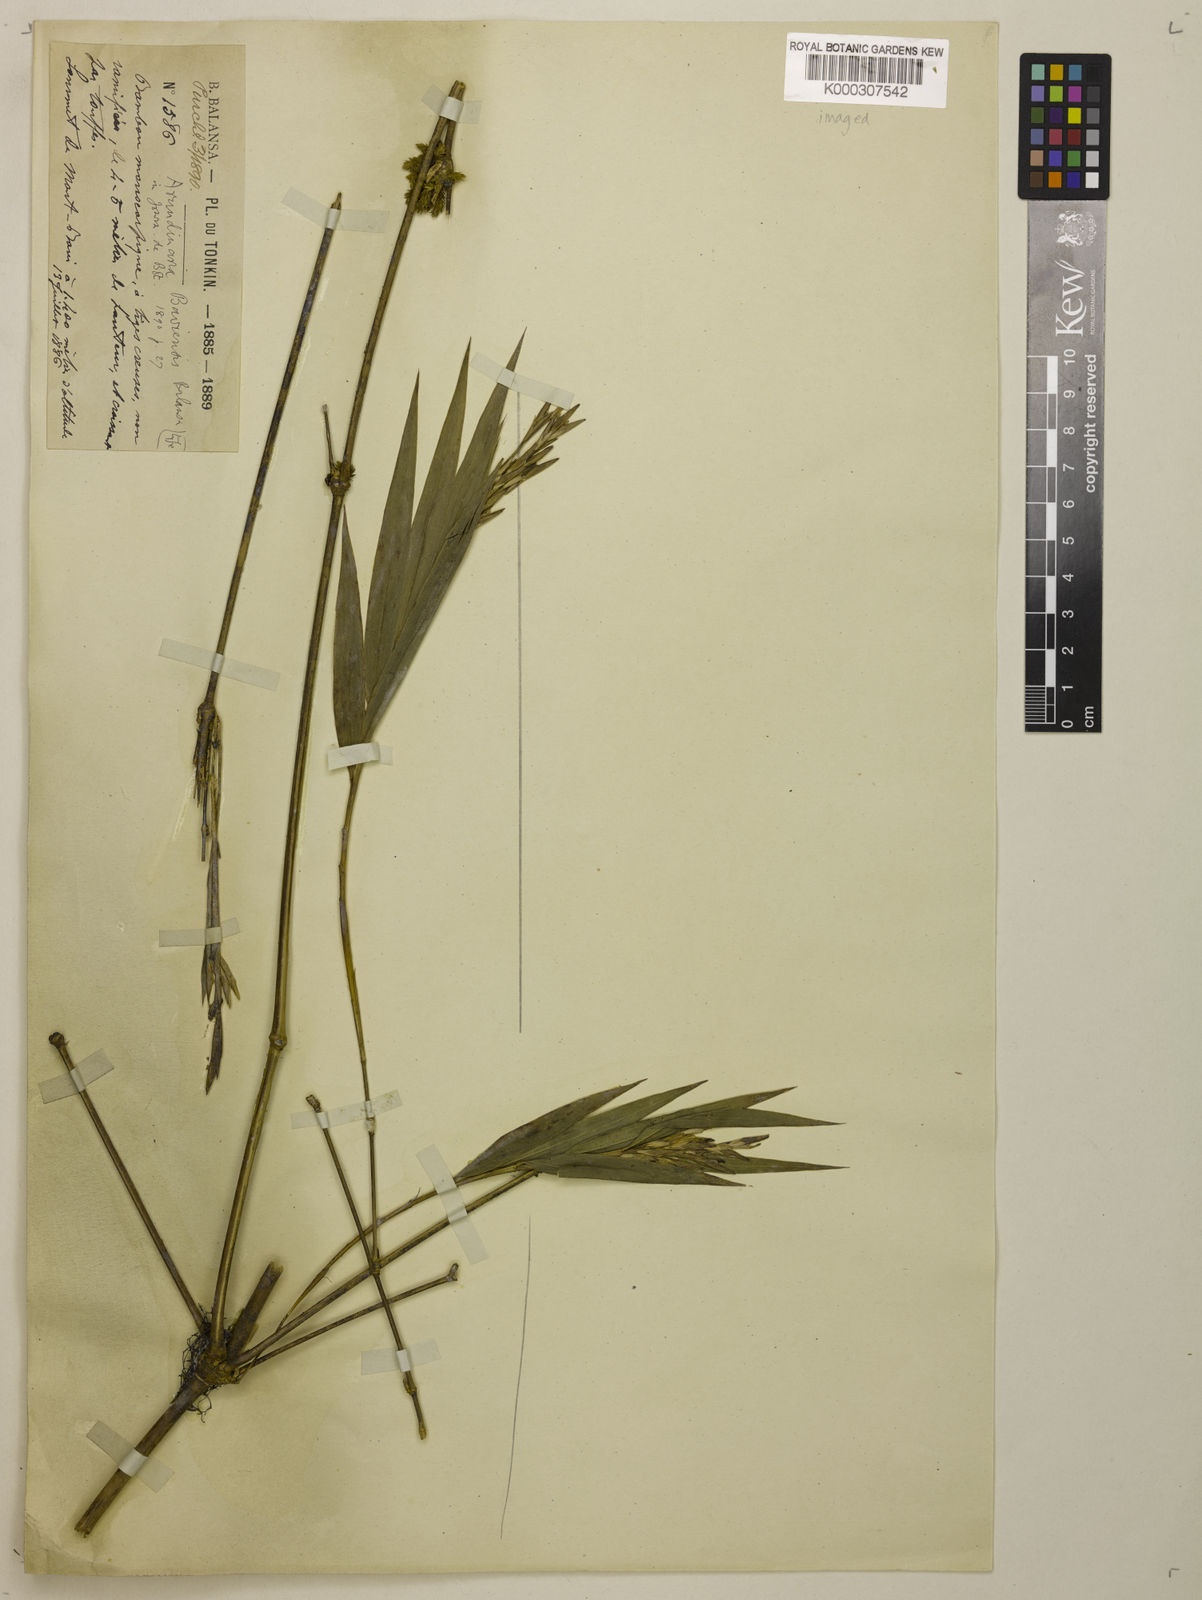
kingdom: Plantae
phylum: Tracheophyta
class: Liliopsida
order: Poales
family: Poaceae
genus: Chimonocalamus
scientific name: Chimonocalamus baviensis
